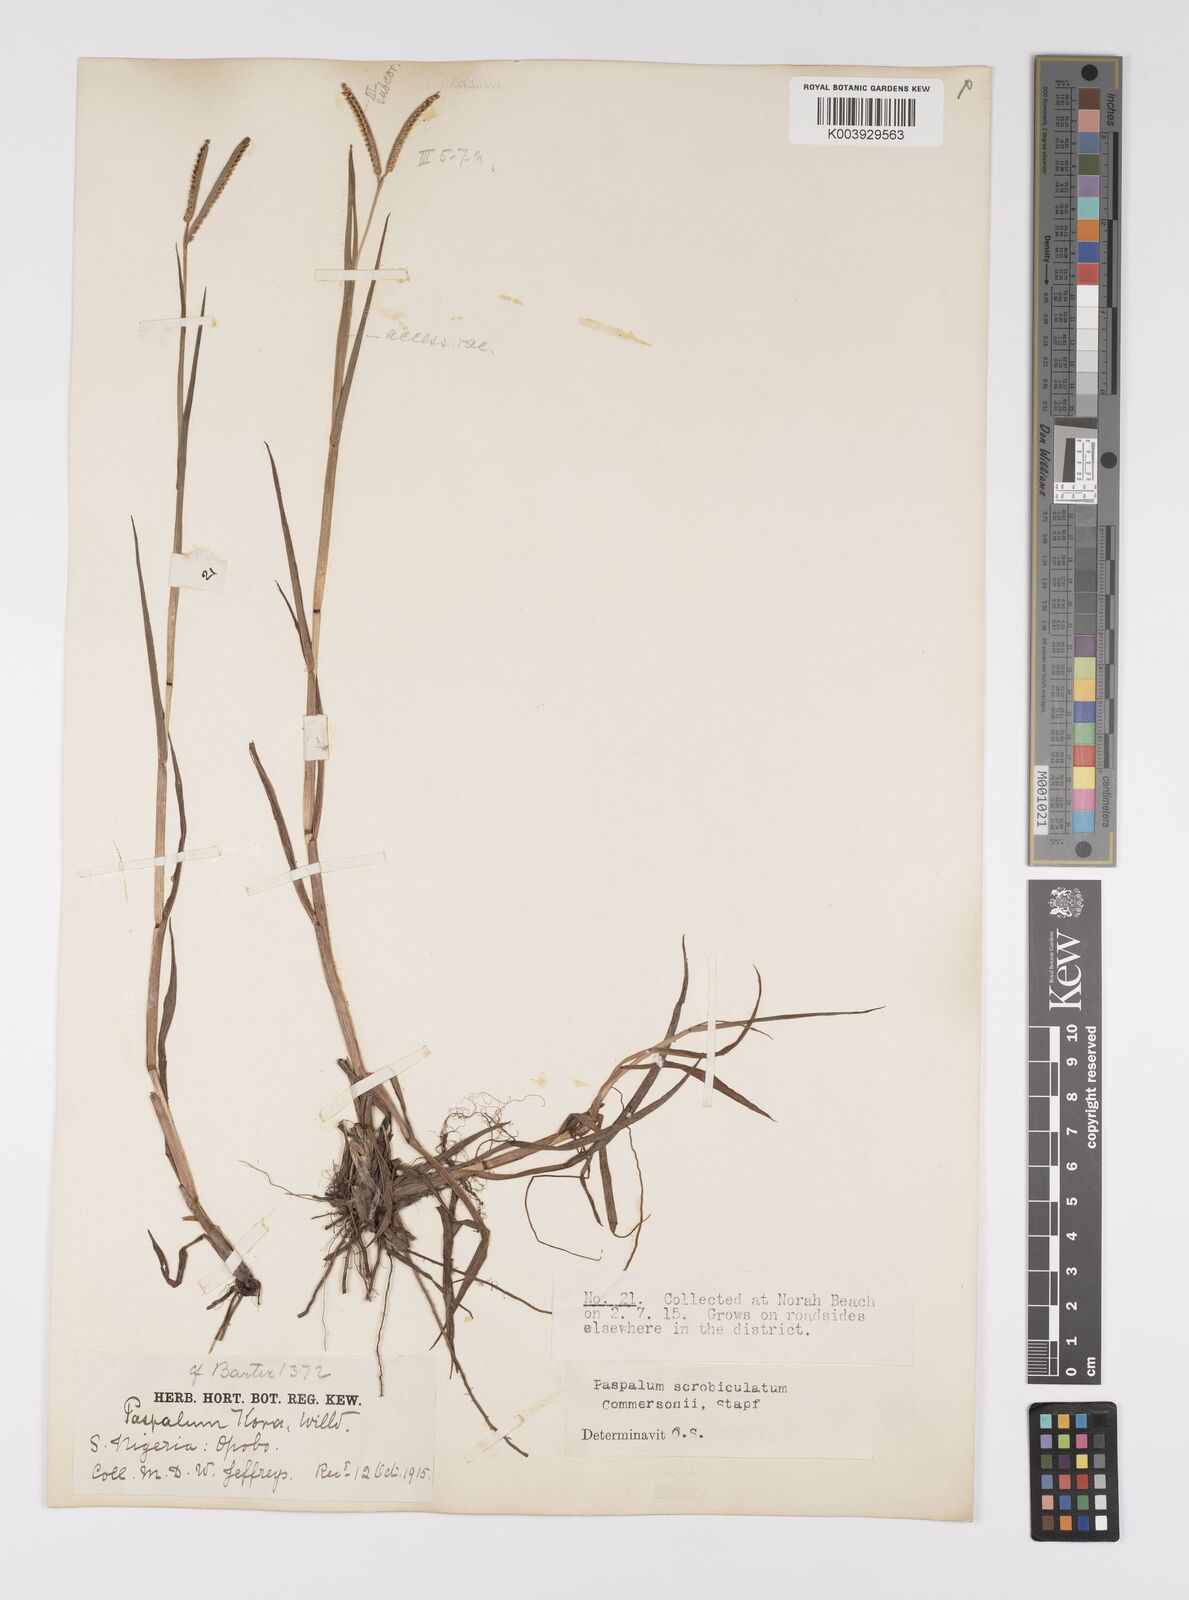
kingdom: Plantae
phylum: Tracheophyta
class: Liliopsida
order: Poales
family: Poaceae
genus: Paspalum
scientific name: Paspalum scrobiculatum
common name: Kodo millet
